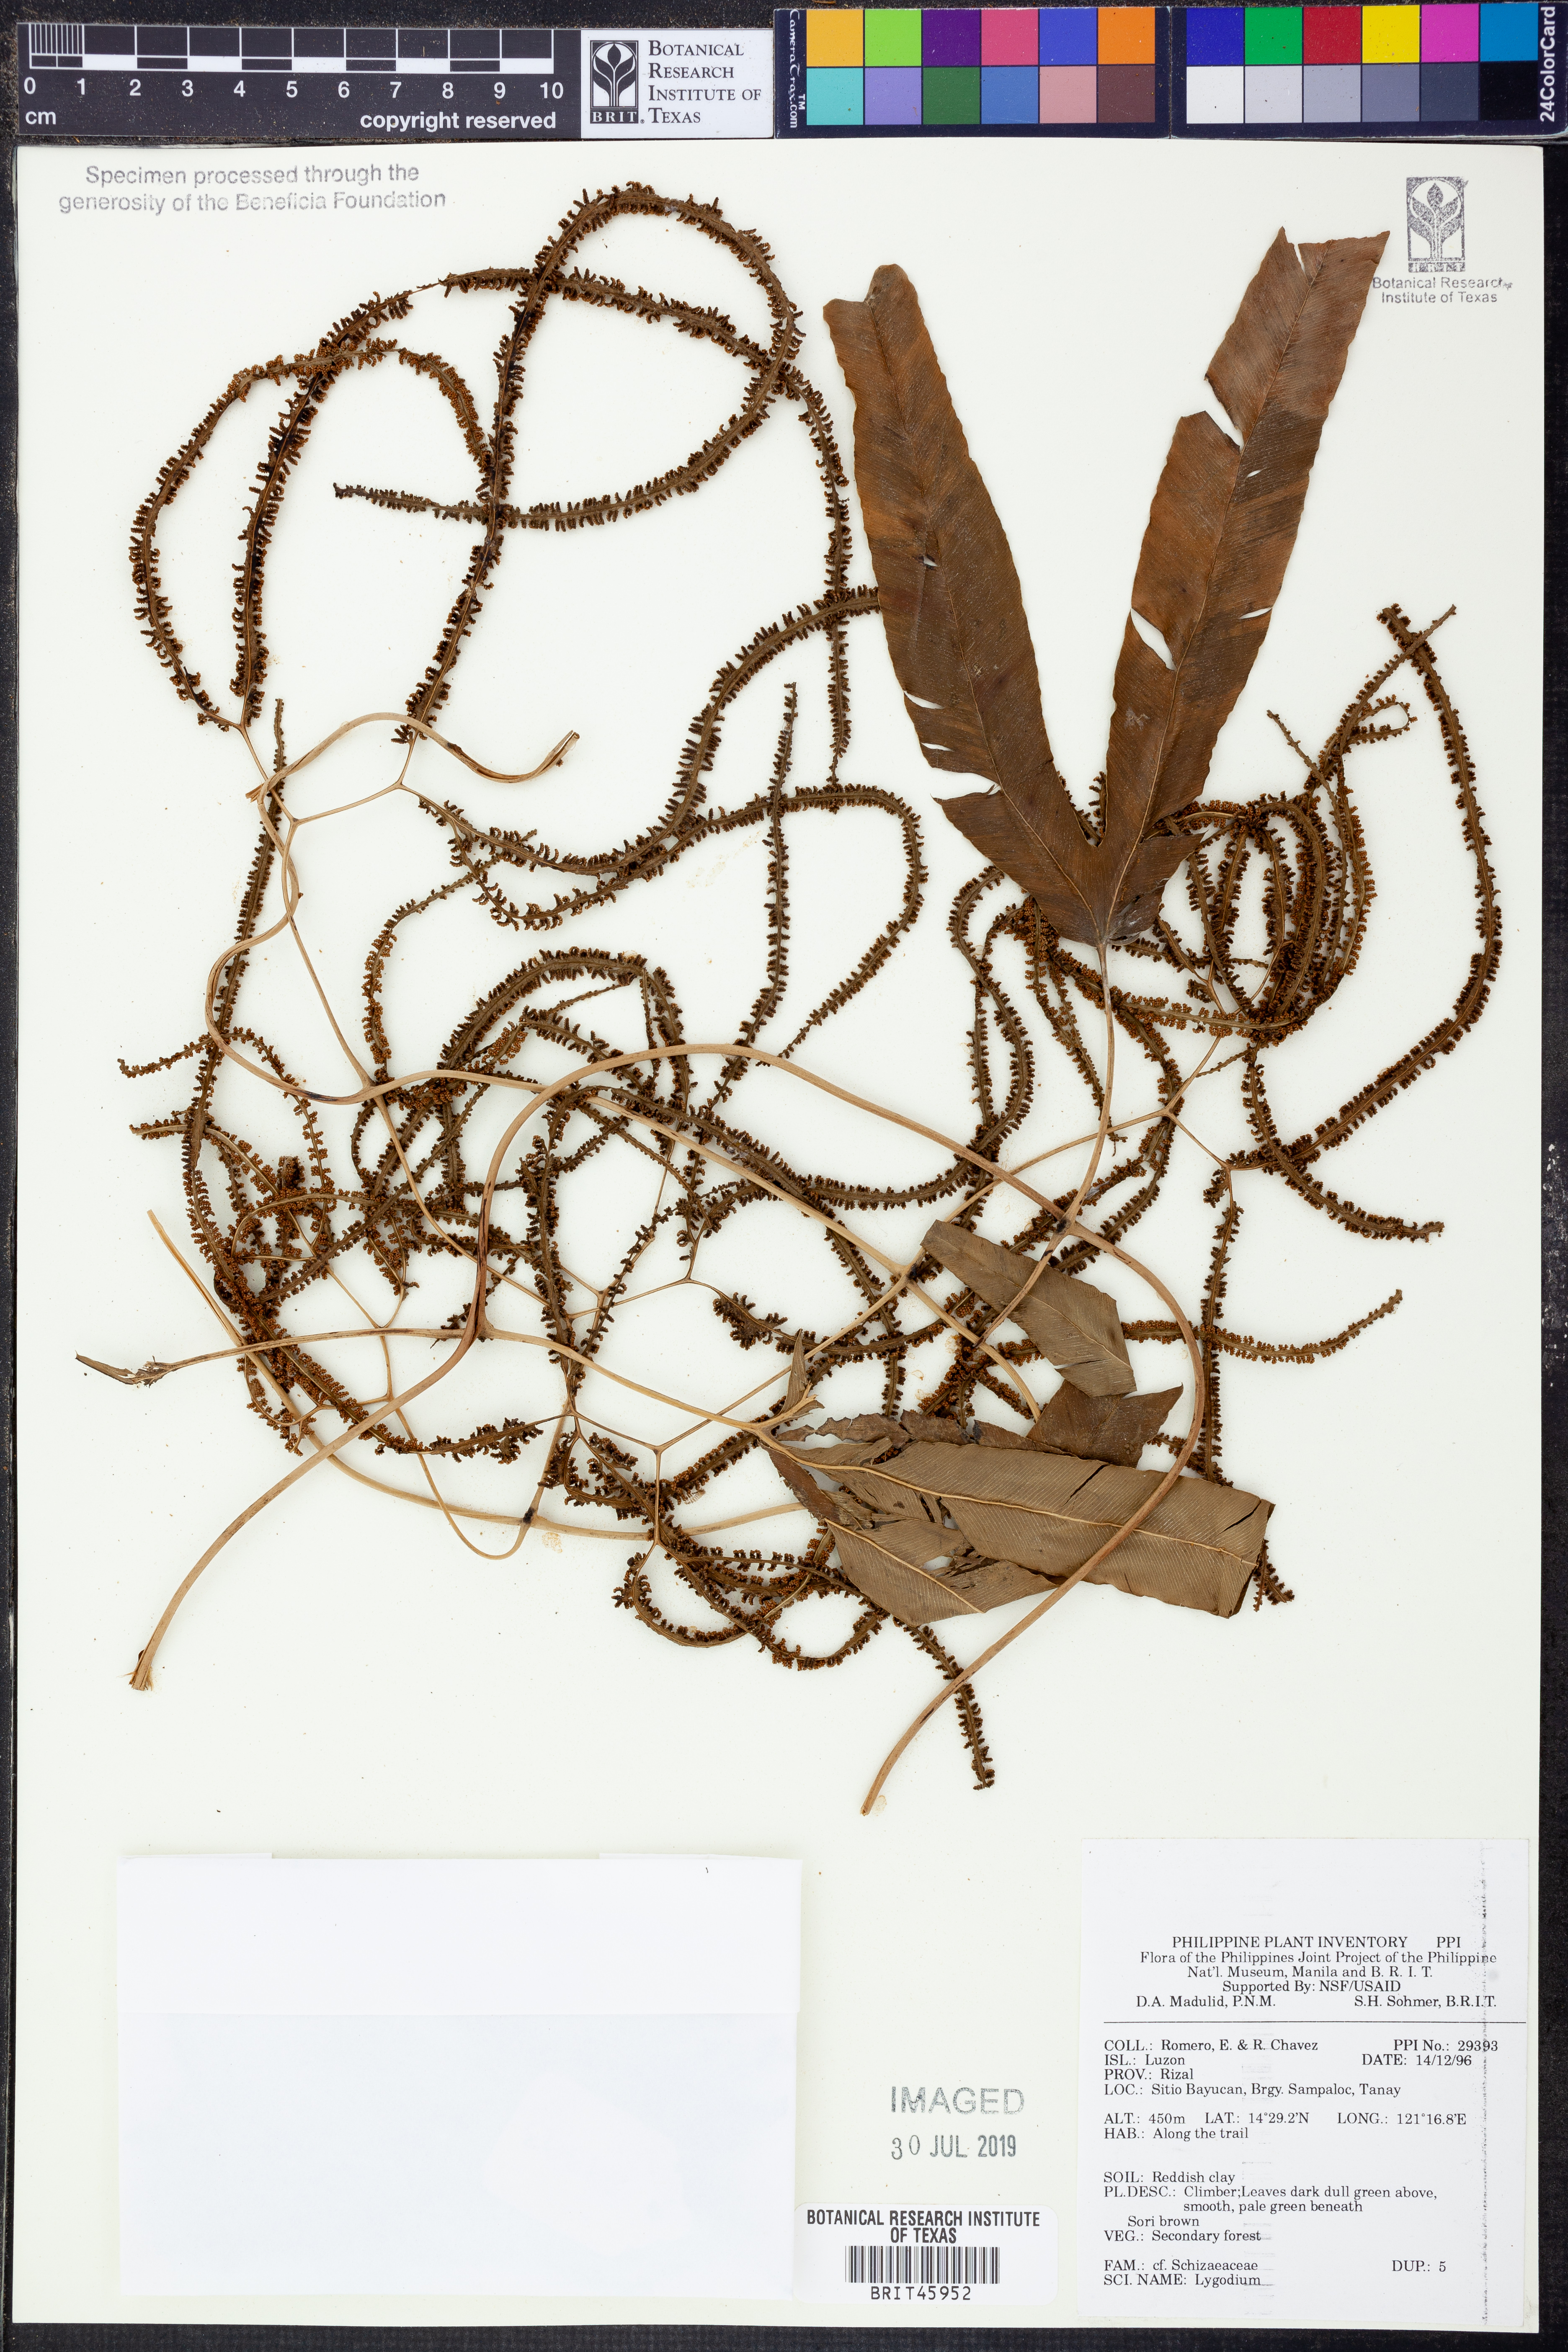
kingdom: Plantae
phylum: Tracheophyta
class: Polypodiopsida
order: Schizaeales
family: Lygodiaceae
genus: Lygodium
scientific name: Lygodium
